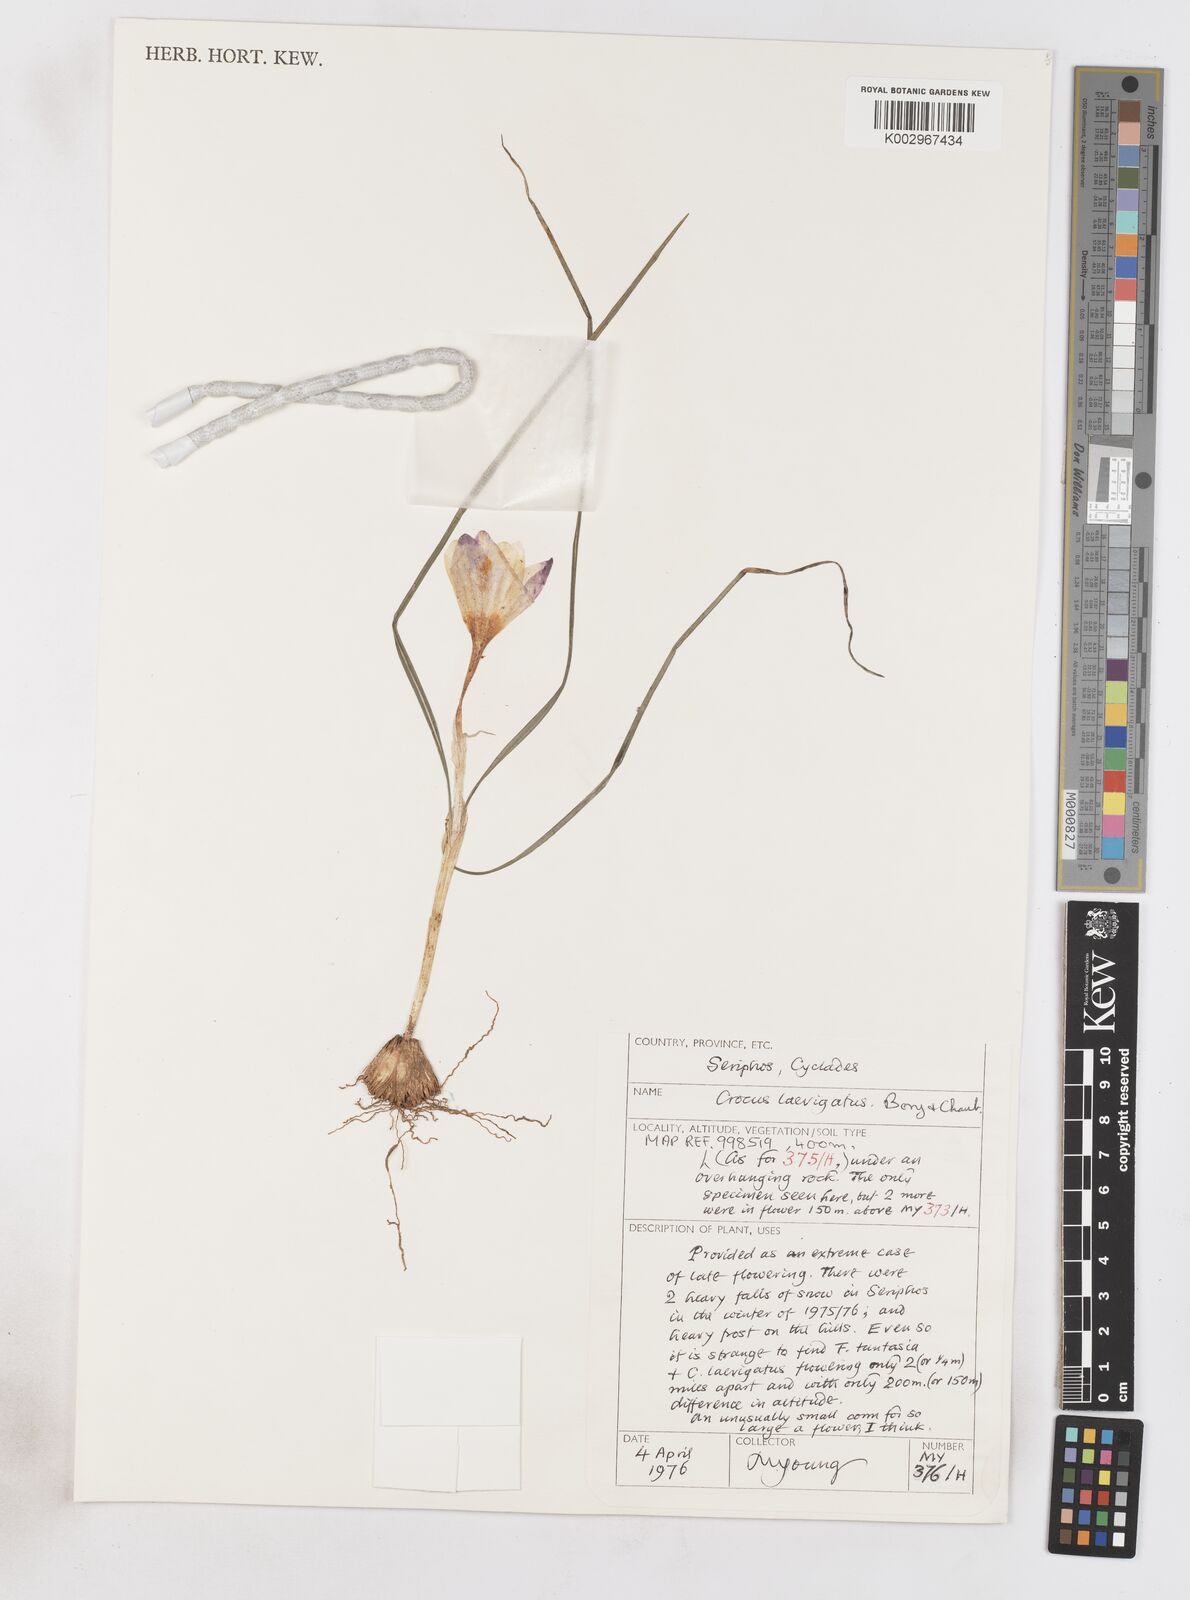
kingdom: Plantae
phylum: Tracheophyta
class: Liliopsida
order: Asparagales
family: Iridaceae
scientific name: Iridaceae
